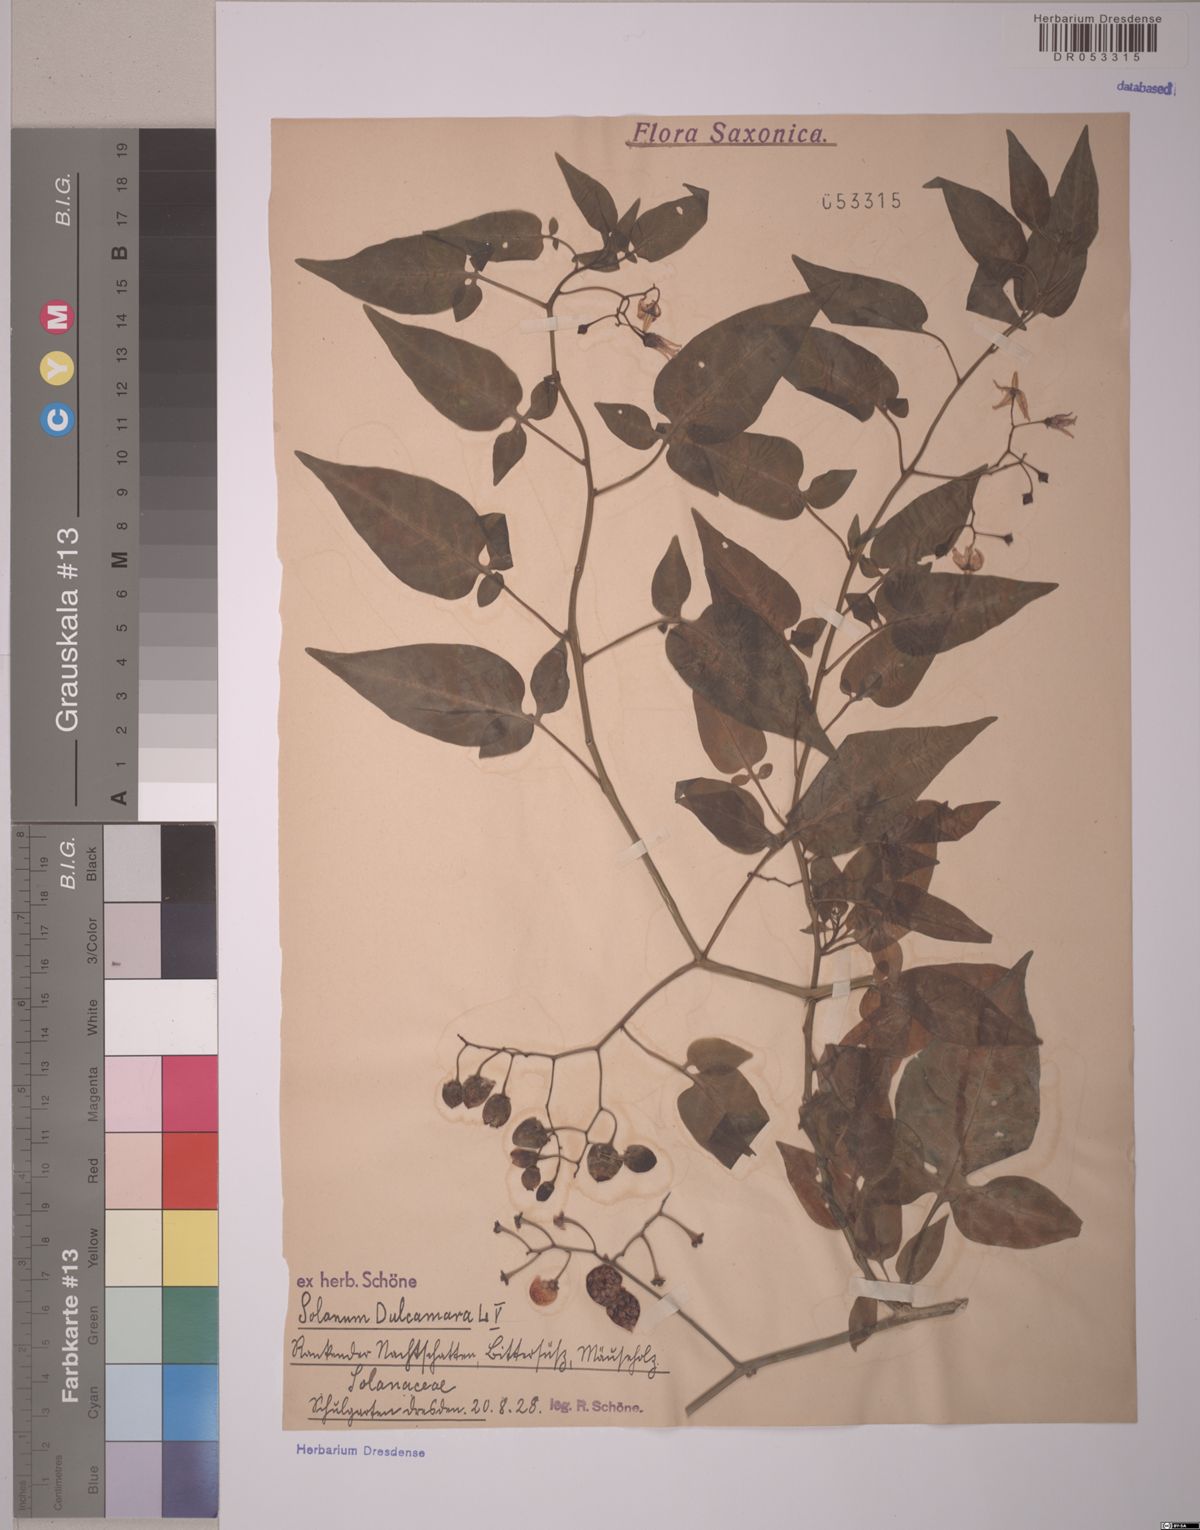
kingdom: Plantae
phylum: Tracheophyta
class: Magnoliopsida
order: Solanales
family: Solanaceae
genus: Solanum
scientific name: Solanum dulcamara
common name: Climbing nightshade
